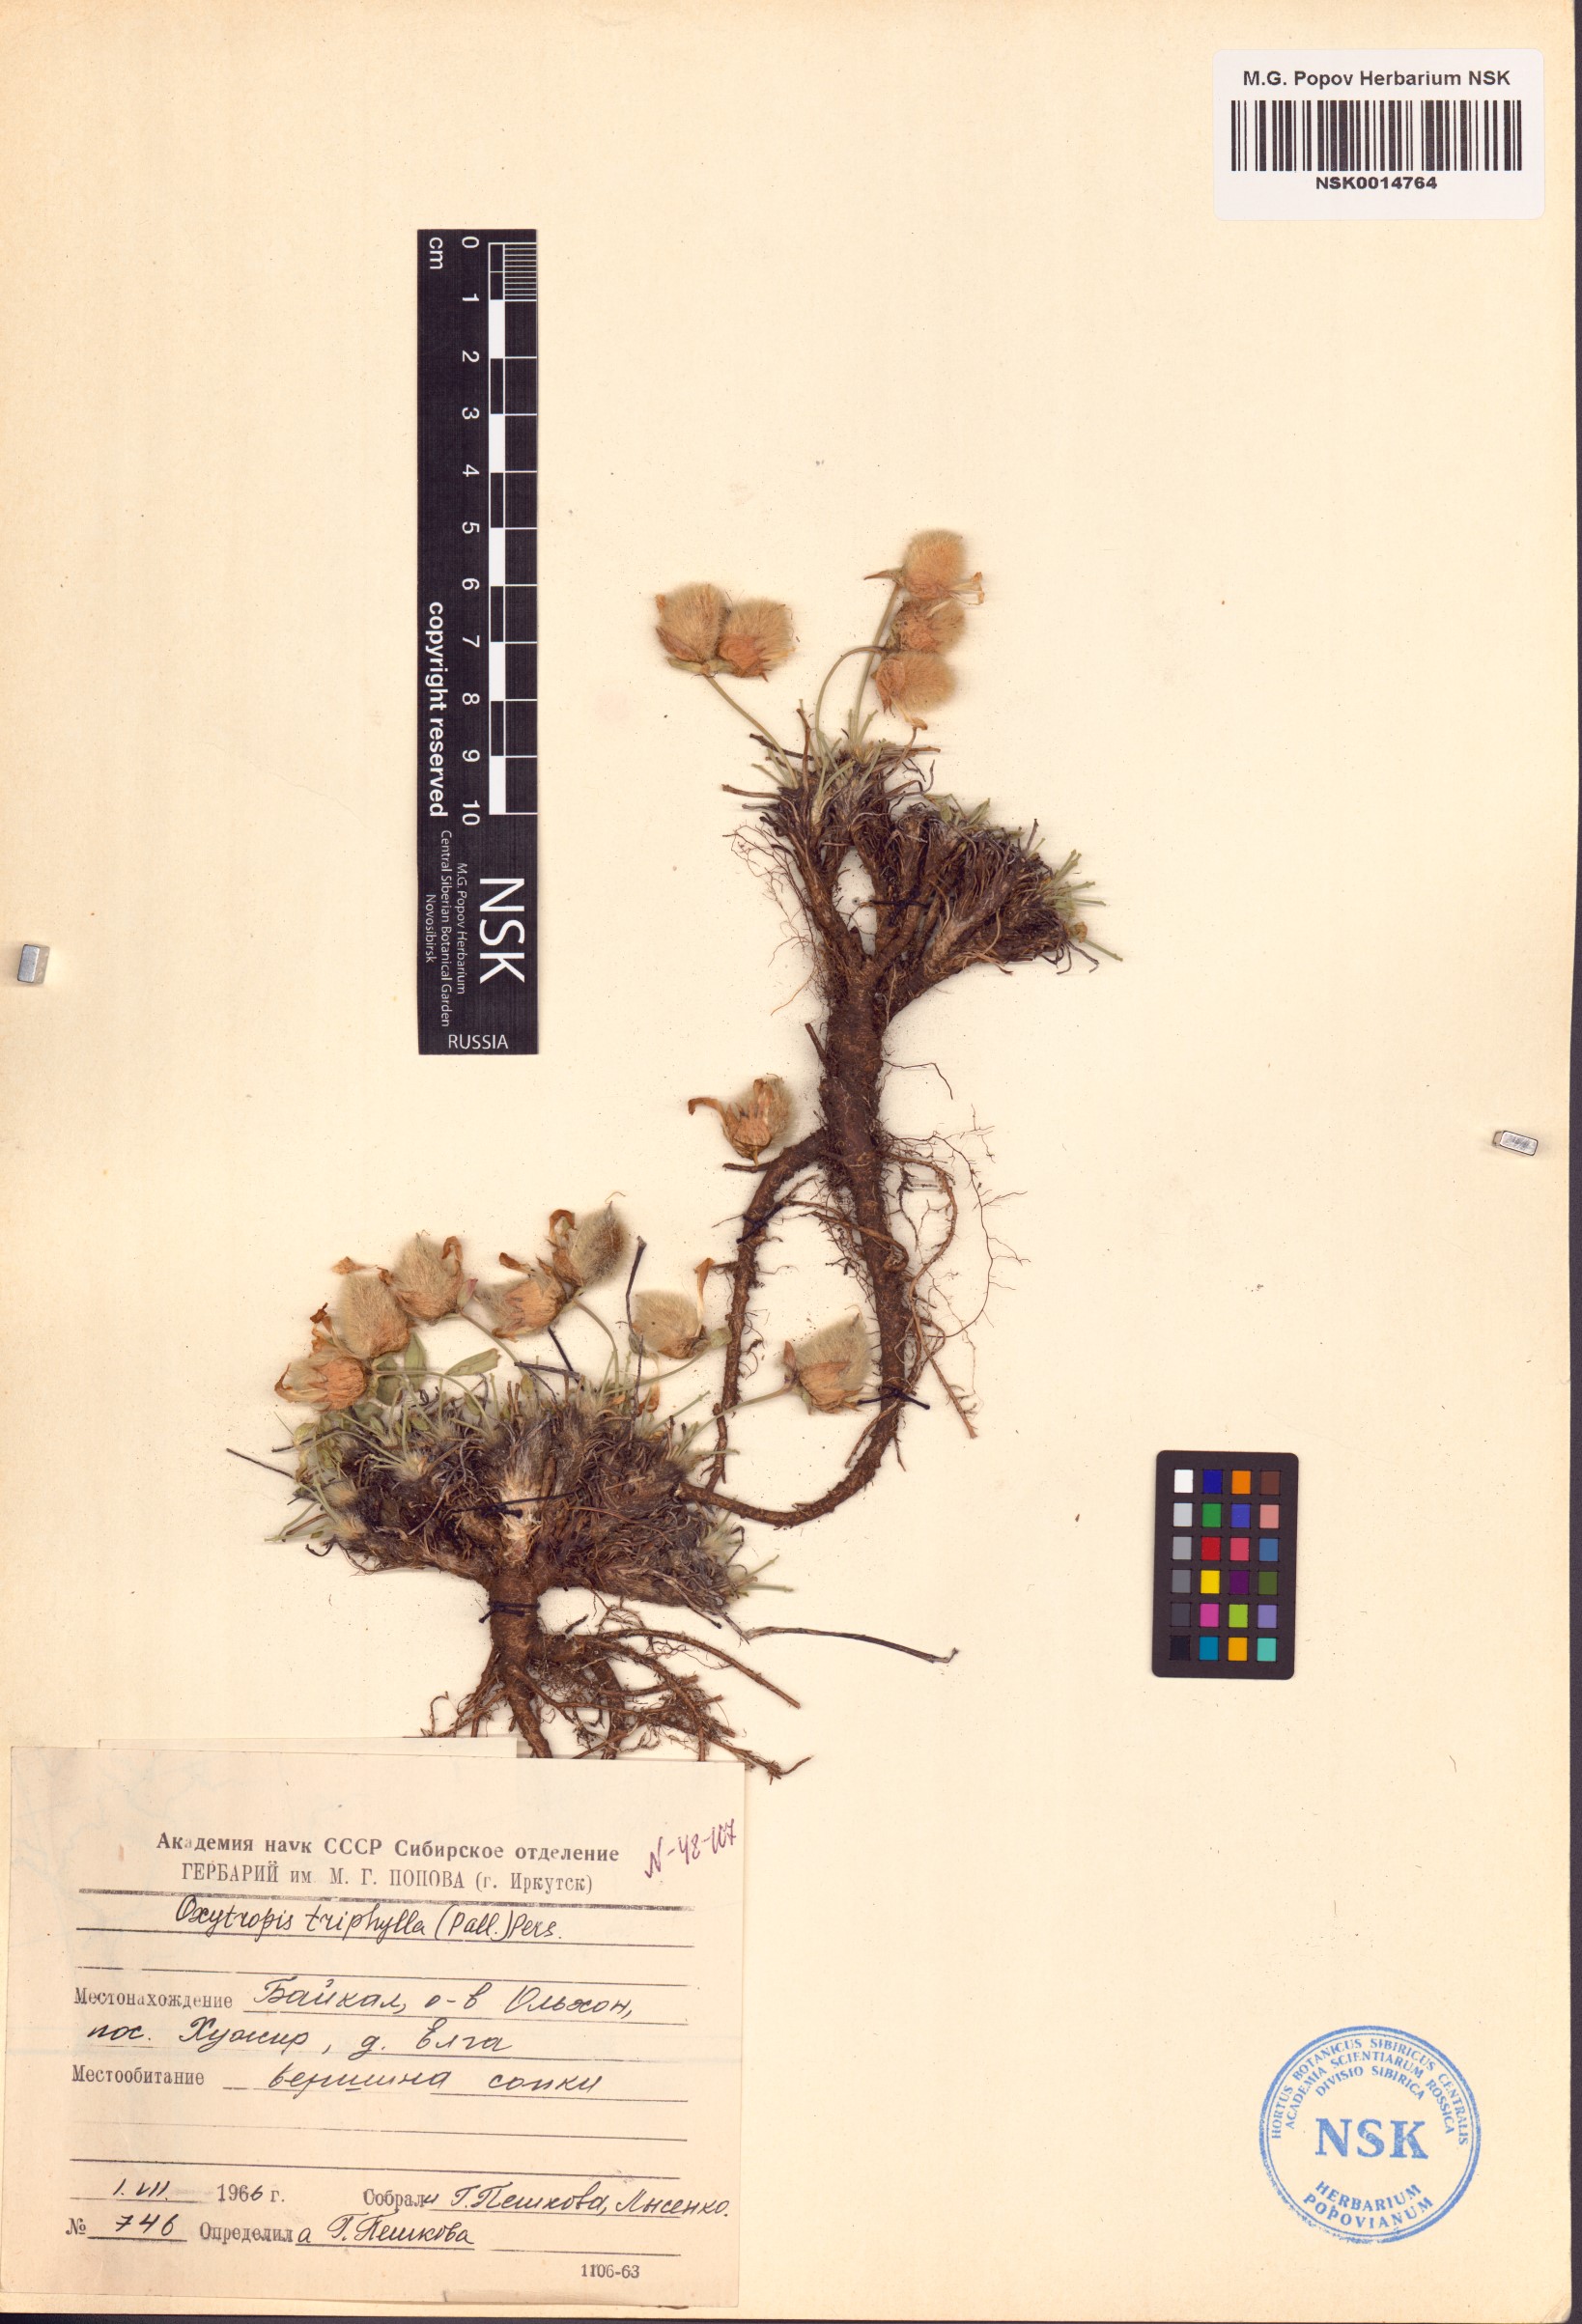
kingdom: Plantae
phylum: Tracheophyta
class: Magnoliopsida
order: Fabales
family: Fabaceae
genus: Oxytropis
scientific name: Oxytropis triphylla
